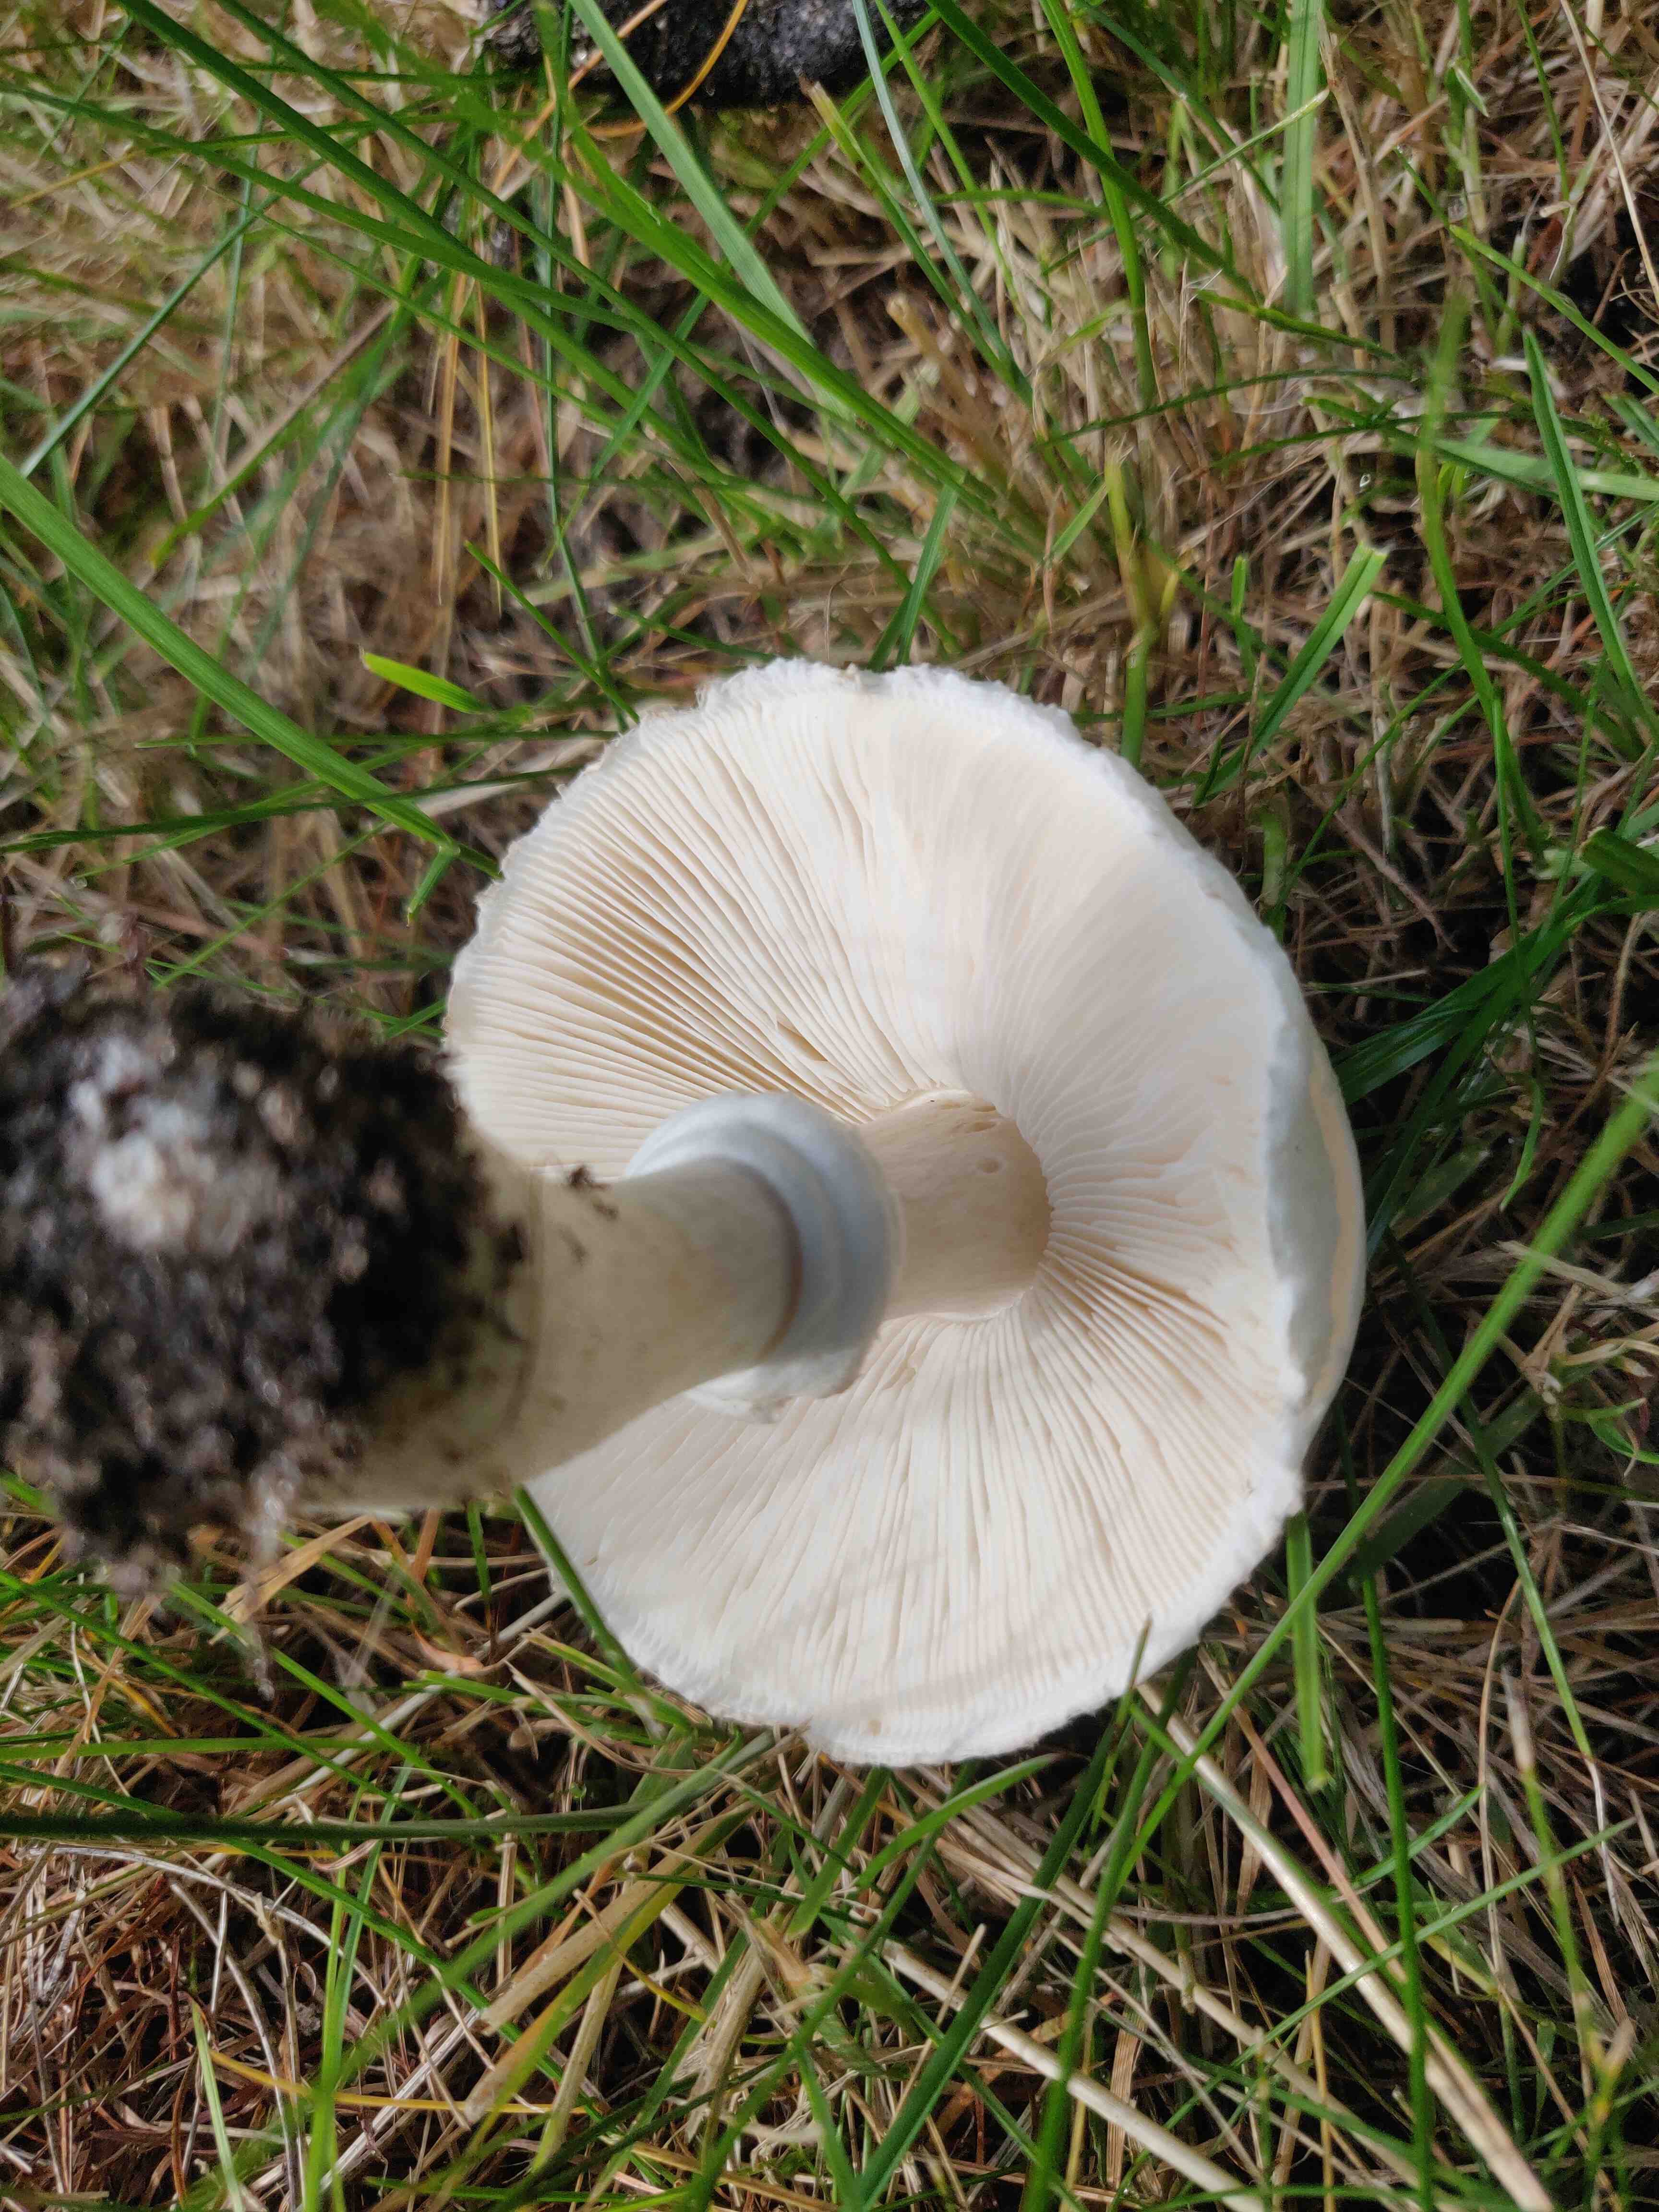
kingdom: Fungi
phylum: Basidiomycota
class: Agaricomycetes
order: Agaricales
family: Agaricaceae
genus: Leucoagaricus
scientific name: Leucoagaricus leucothites
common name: rosabladet silkehat
